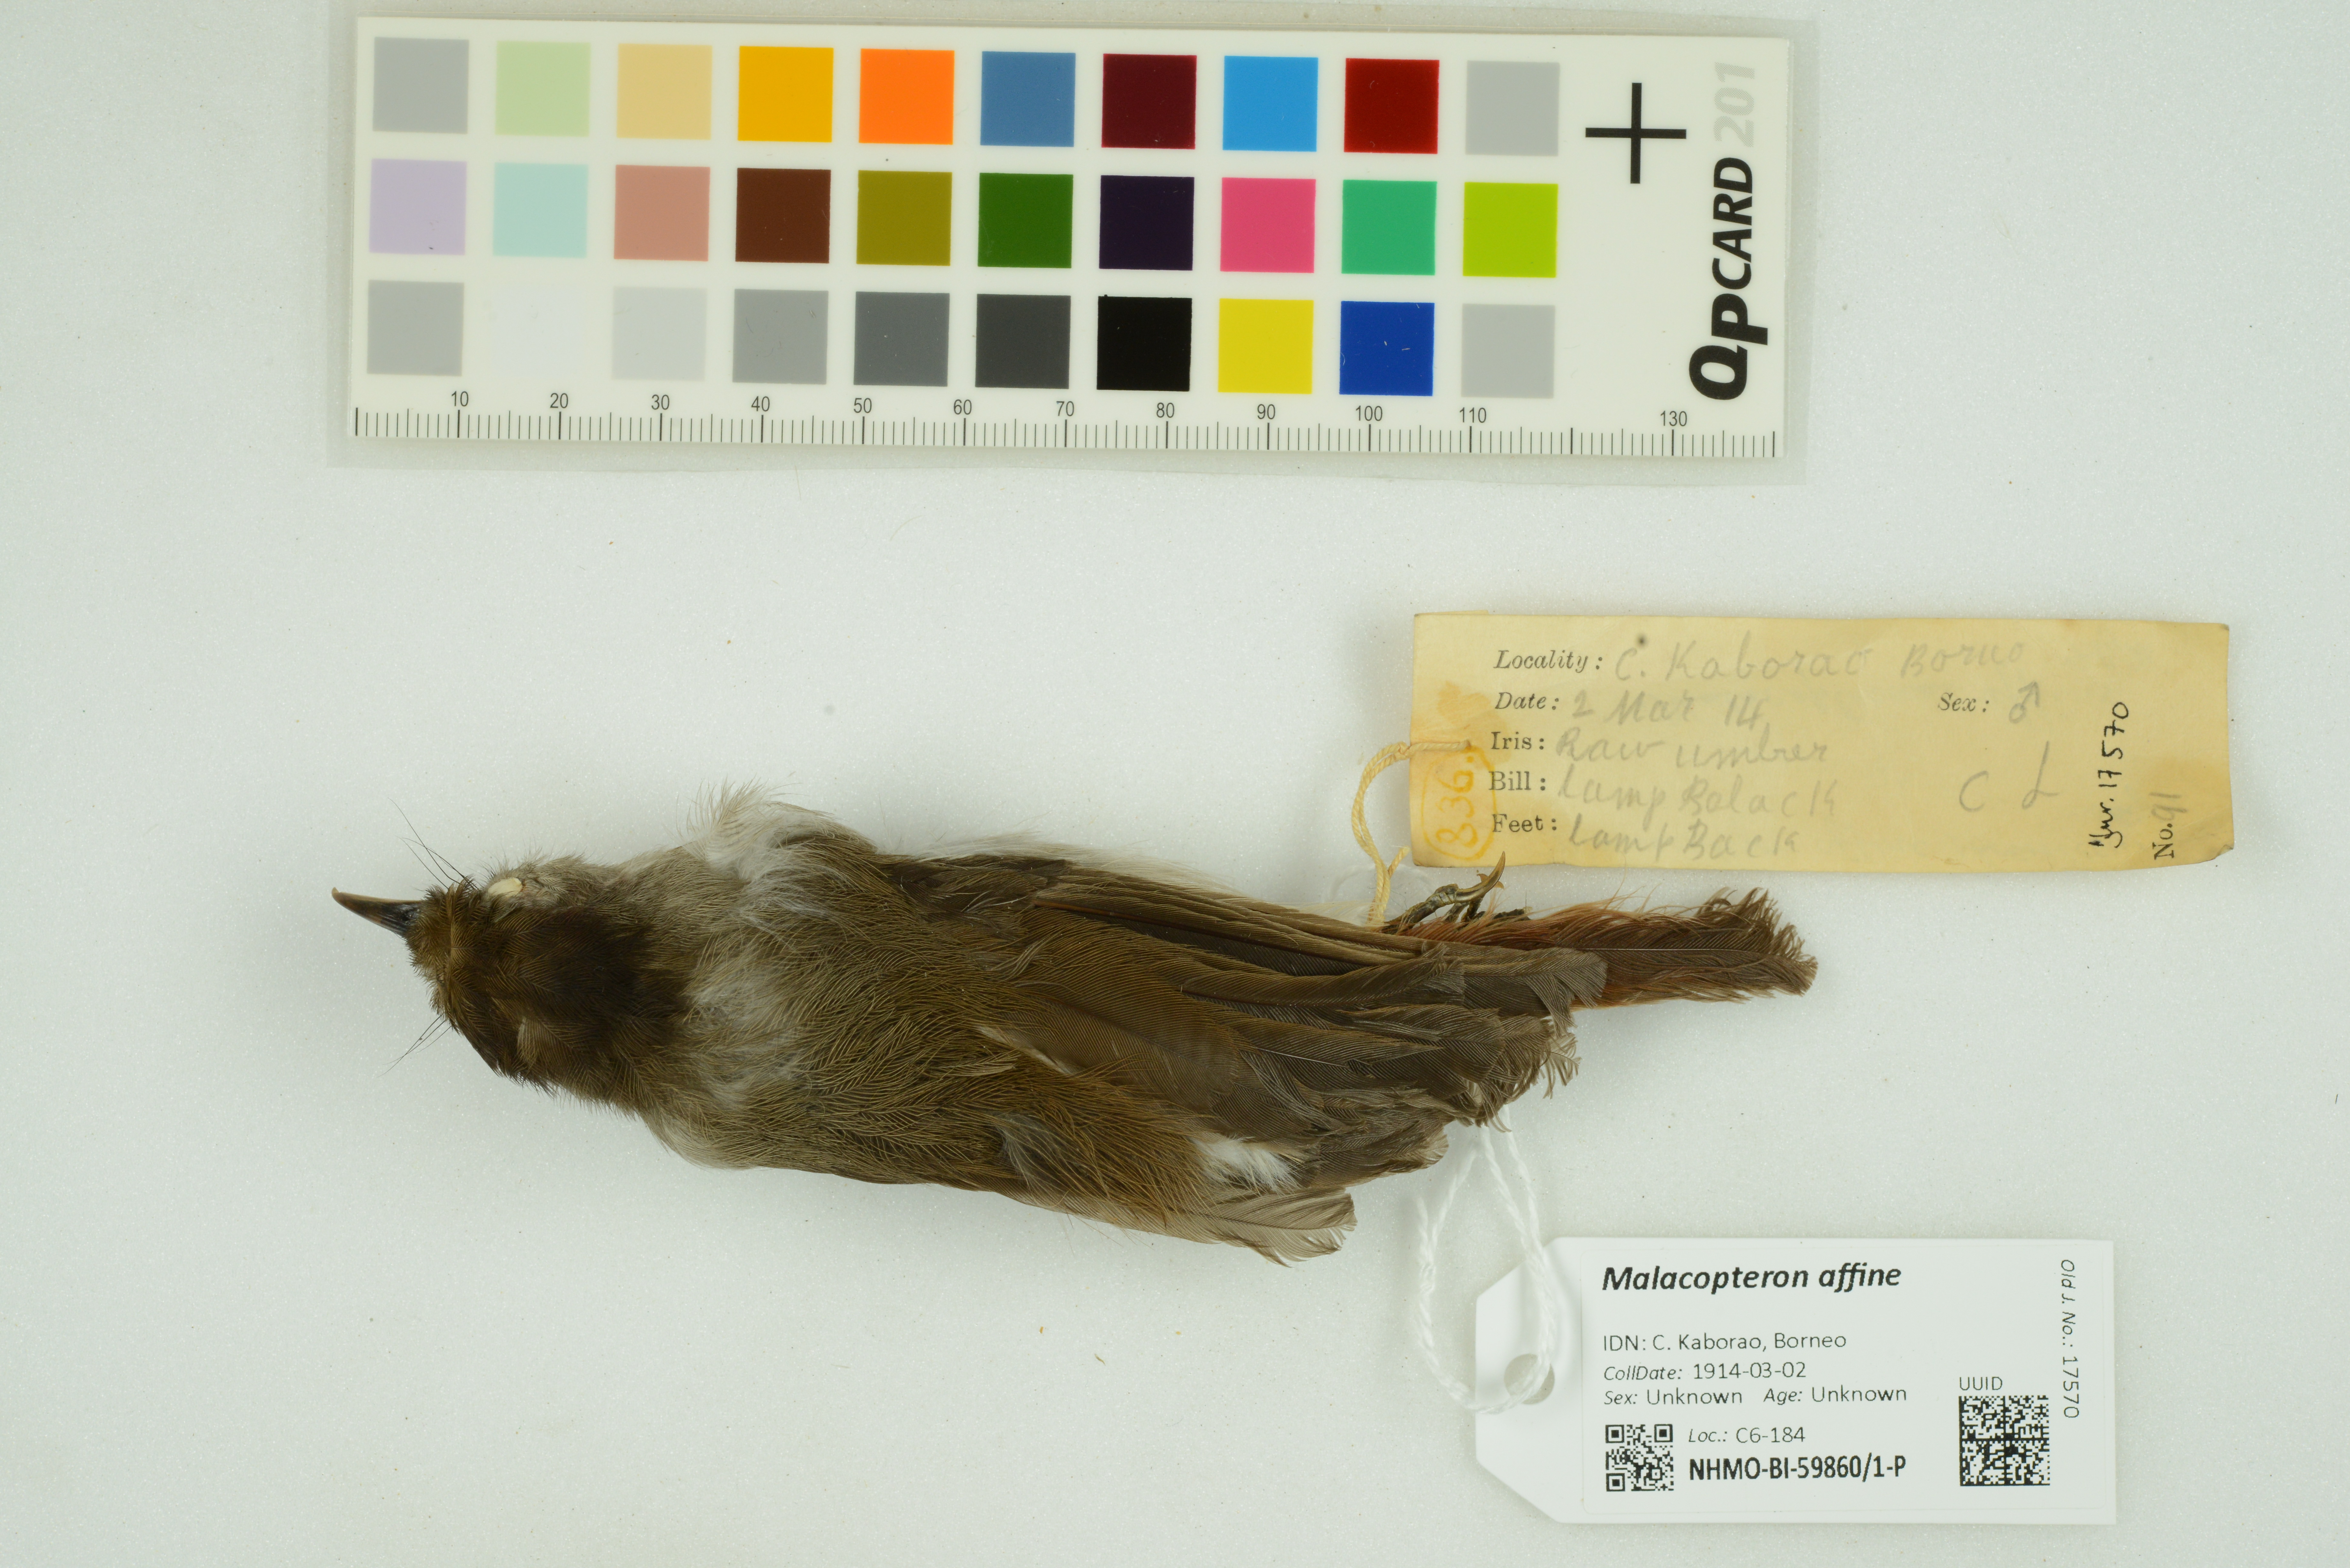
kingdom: Animalia
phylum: Chordata
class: Aves
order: Passeriformes
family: Pellorneidae
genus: Malacopteron
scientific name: Malacopteron affine
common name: Sooty-capped babbler
